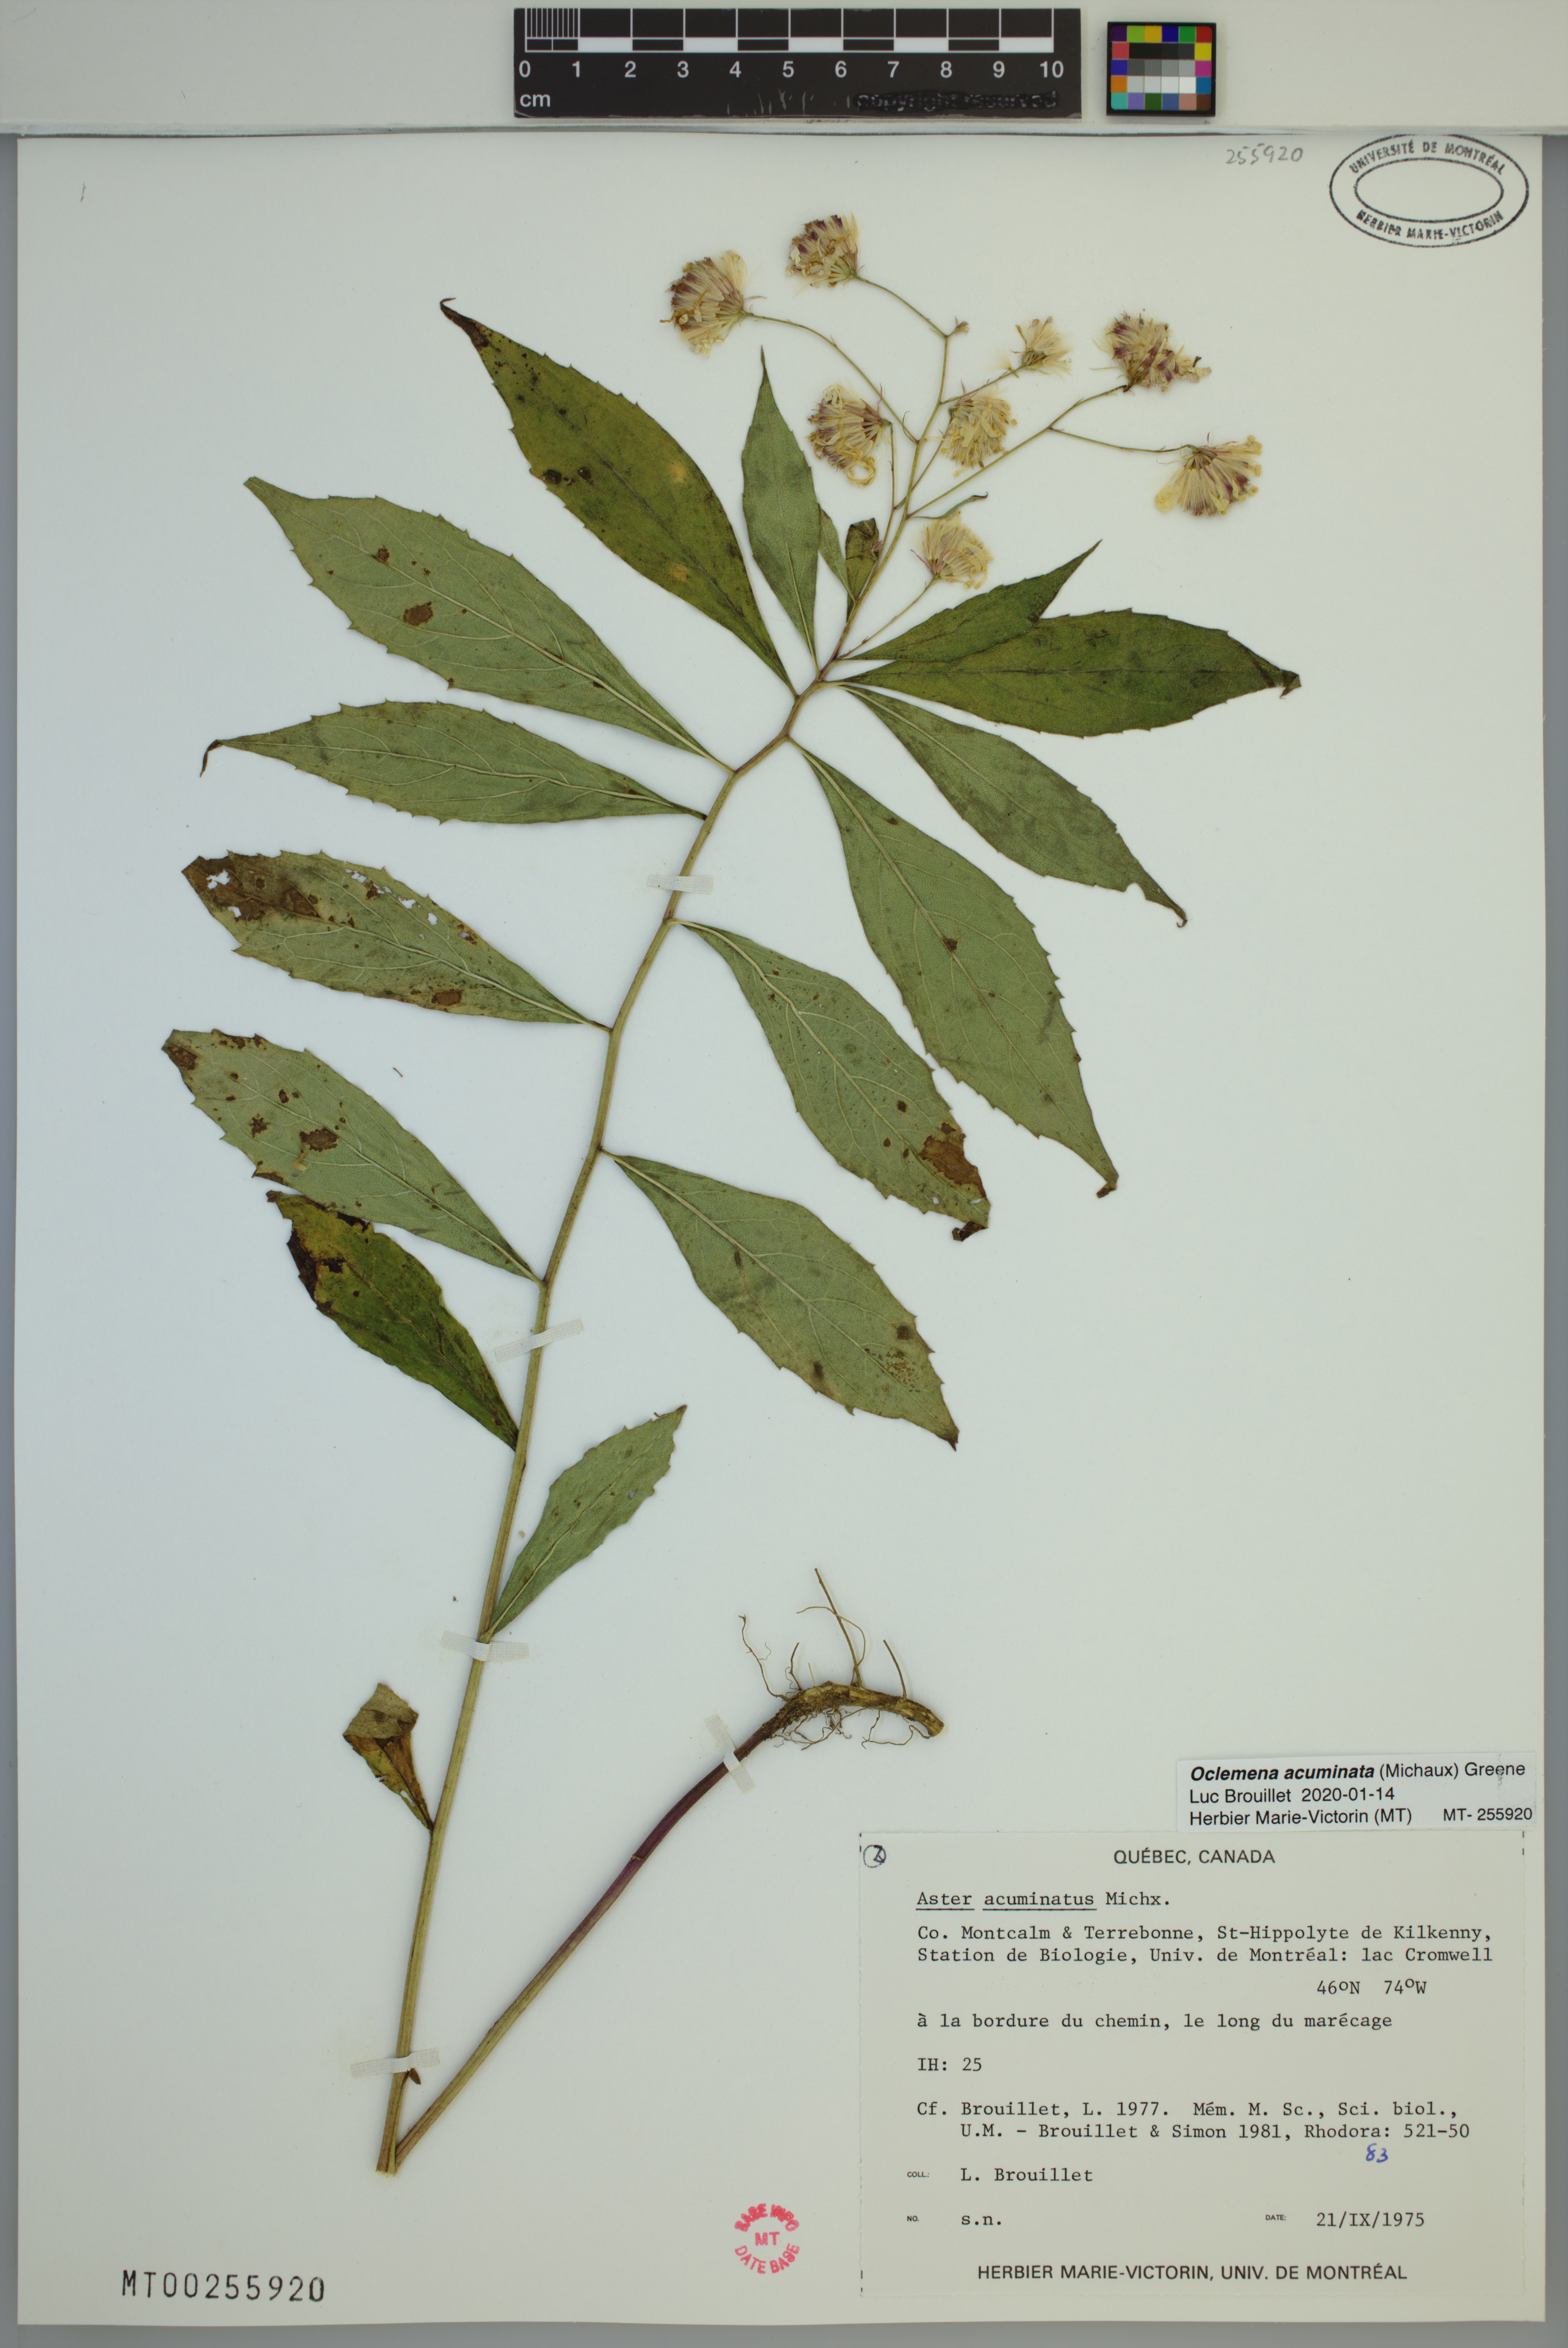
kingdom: Plantae
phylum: Tracheophyta
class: Magnoliopsida
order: Asterales
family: Asteraceae
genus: Oclemena
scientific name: Oclemena acuminata
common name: Mountain aster
